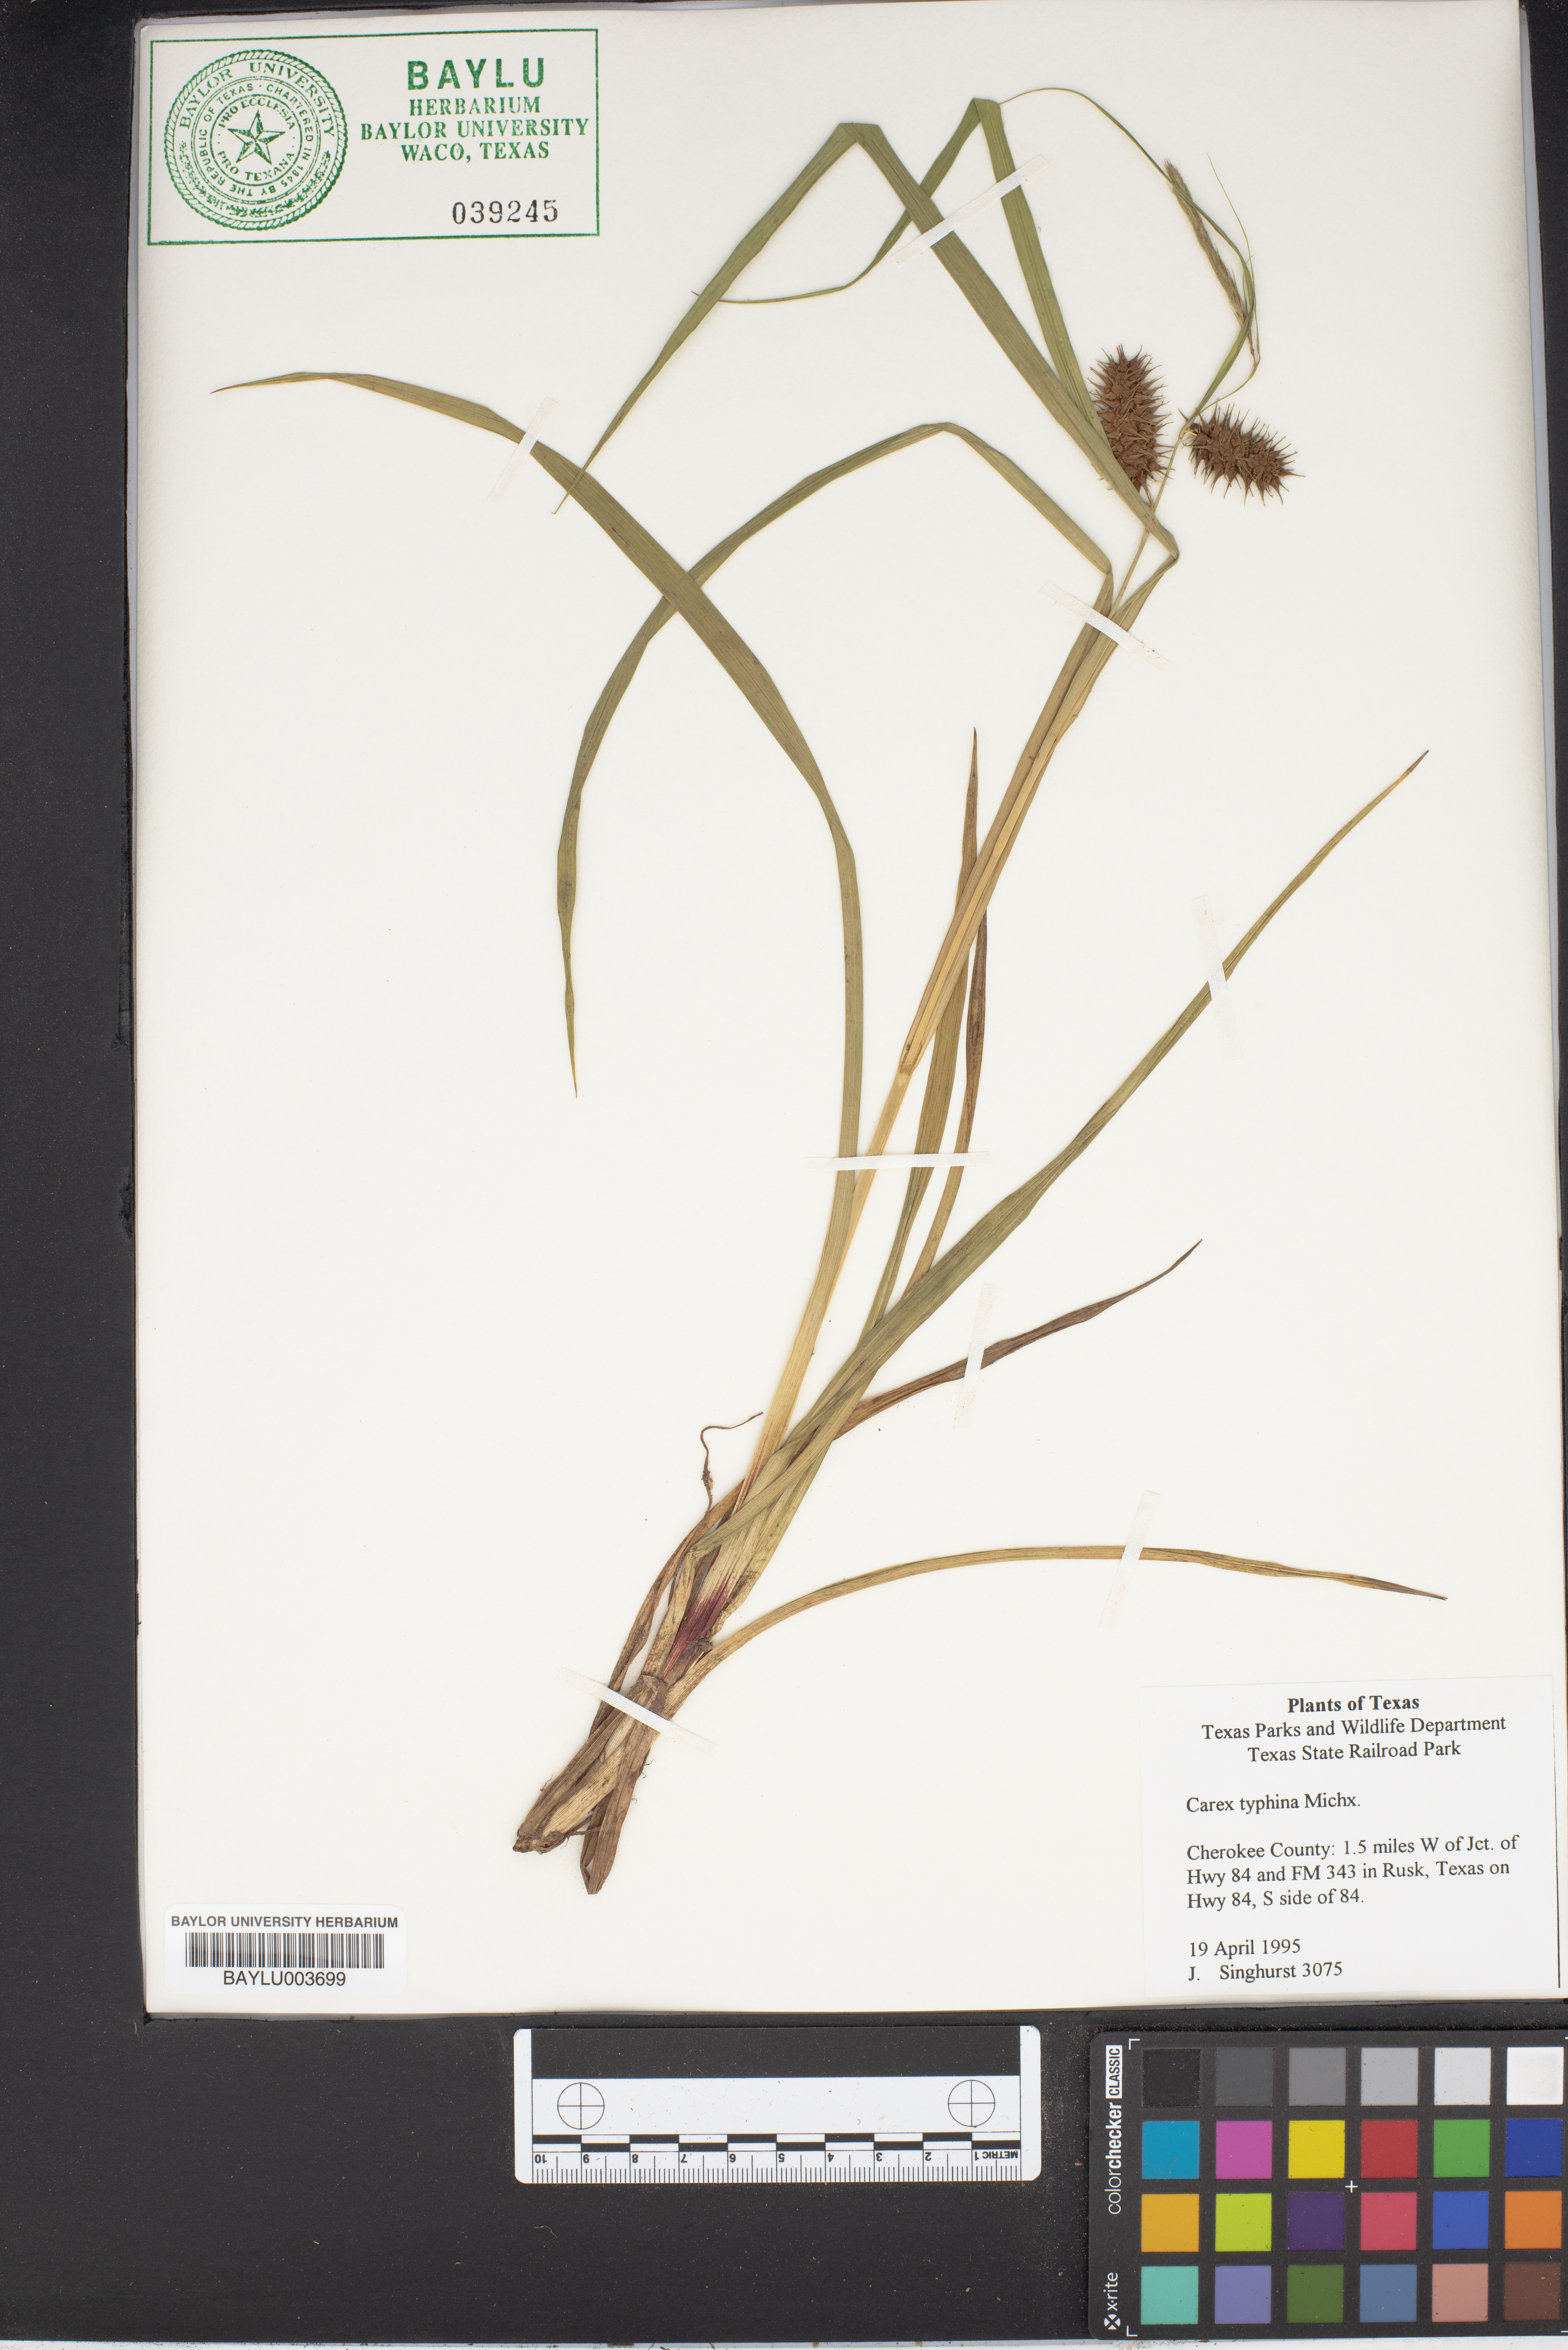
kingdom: Plantae
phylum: Tracheophyta
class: Liliopsida
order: Poales
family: Cyperaceae
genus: Carex
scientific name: Carex typhina
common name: Cattail sedge
